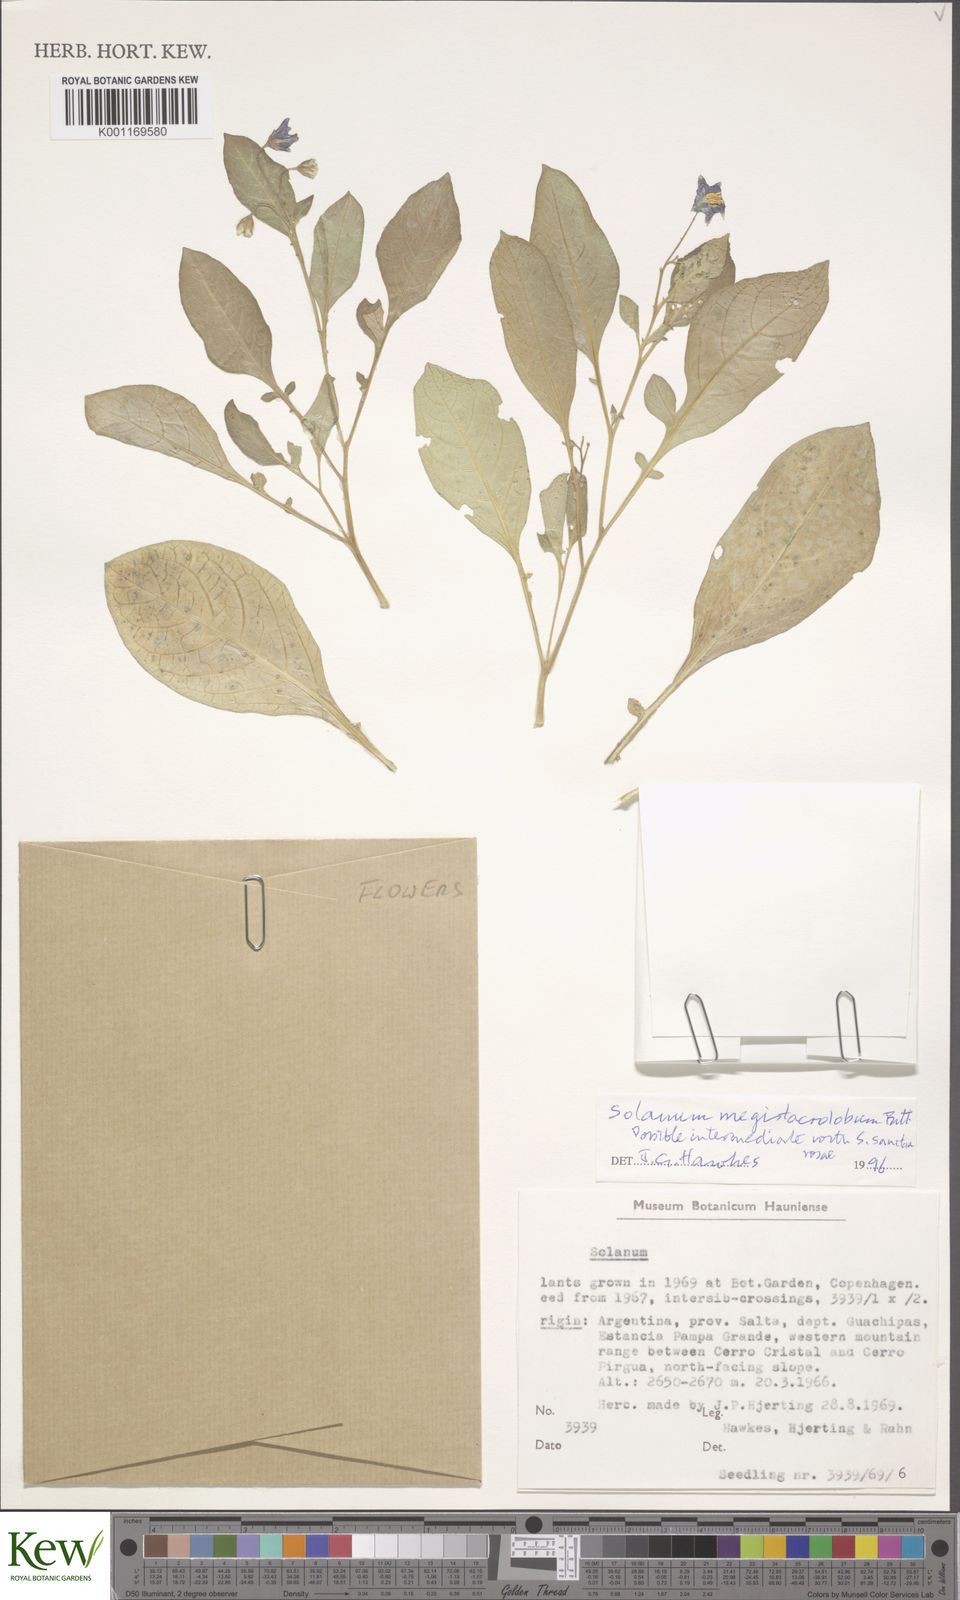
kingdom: Plantae
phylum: Tracheophyta
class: Magnoliopsida
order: Solanales
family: Solanaceae
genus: Solanum
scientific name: Solanum boliviense
